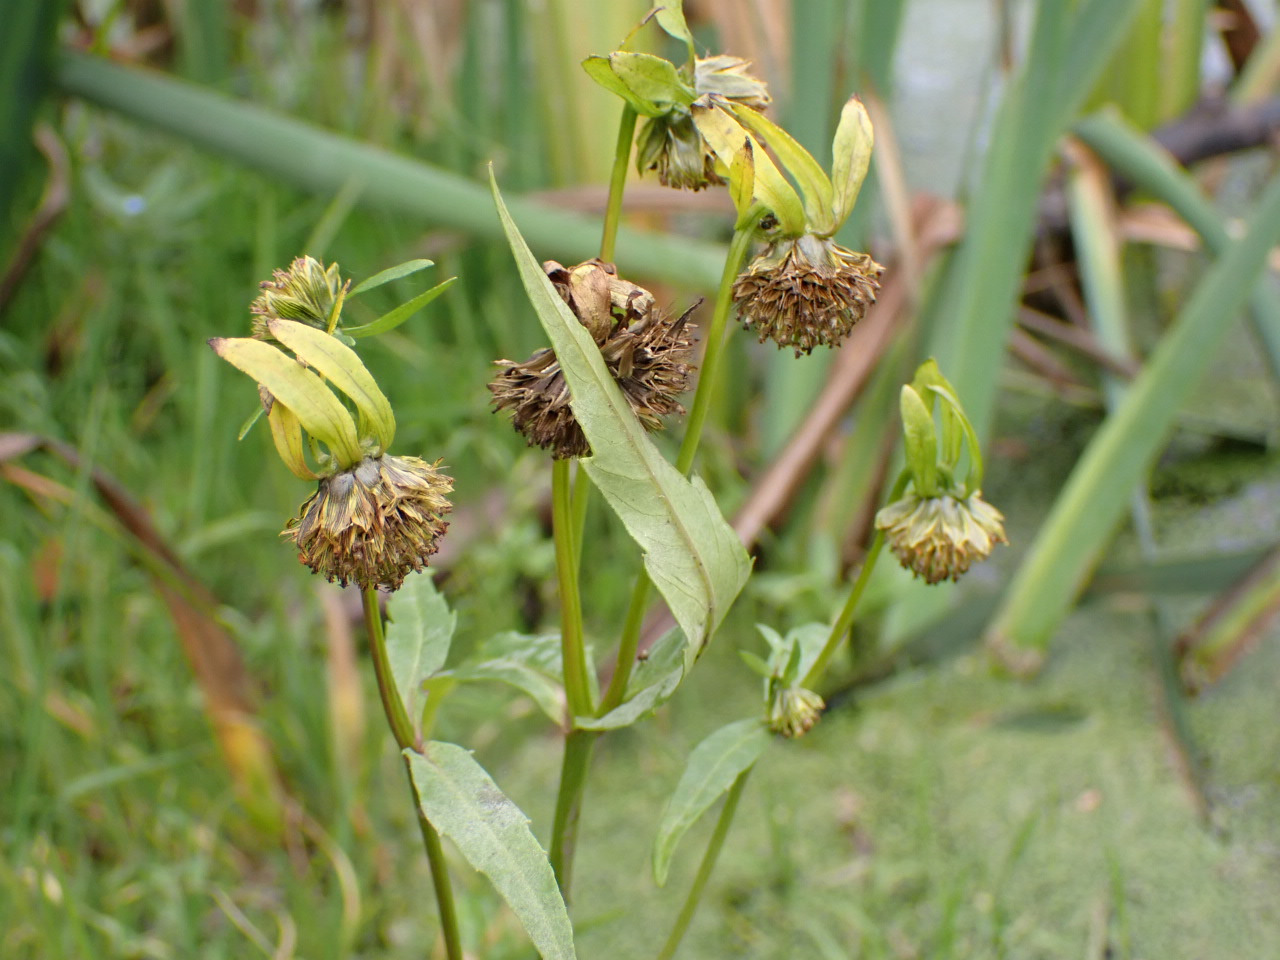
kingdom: Plantae
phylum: Tracheophyta
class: Magnoliopsida
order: Asterales
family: Asteraceae
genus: Bidens
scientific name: Bidens cernua
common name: Nikkende brøndsel
